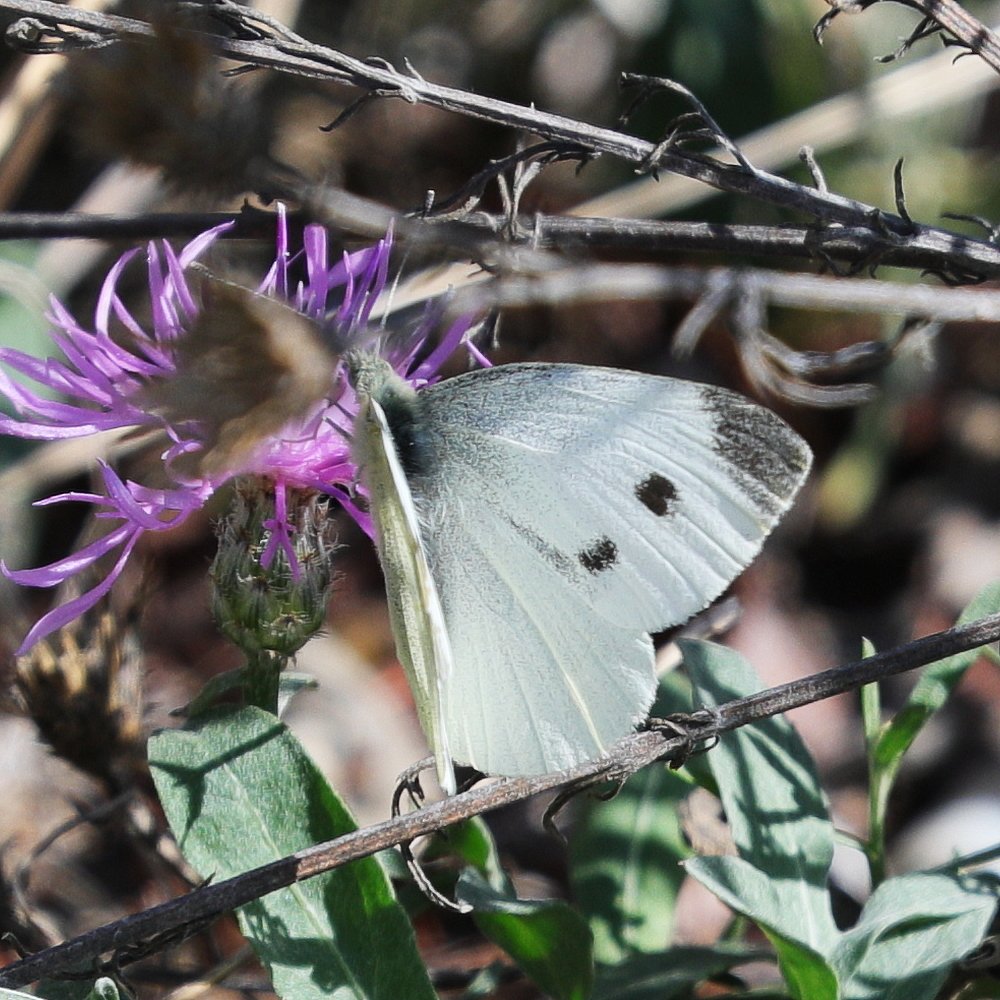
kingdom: Animalia
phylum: Arthropoda
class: Insecta
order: Lepidoptera
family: Pieridae
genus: Pieris
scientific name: Pieris rapae
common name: Cabbage White
